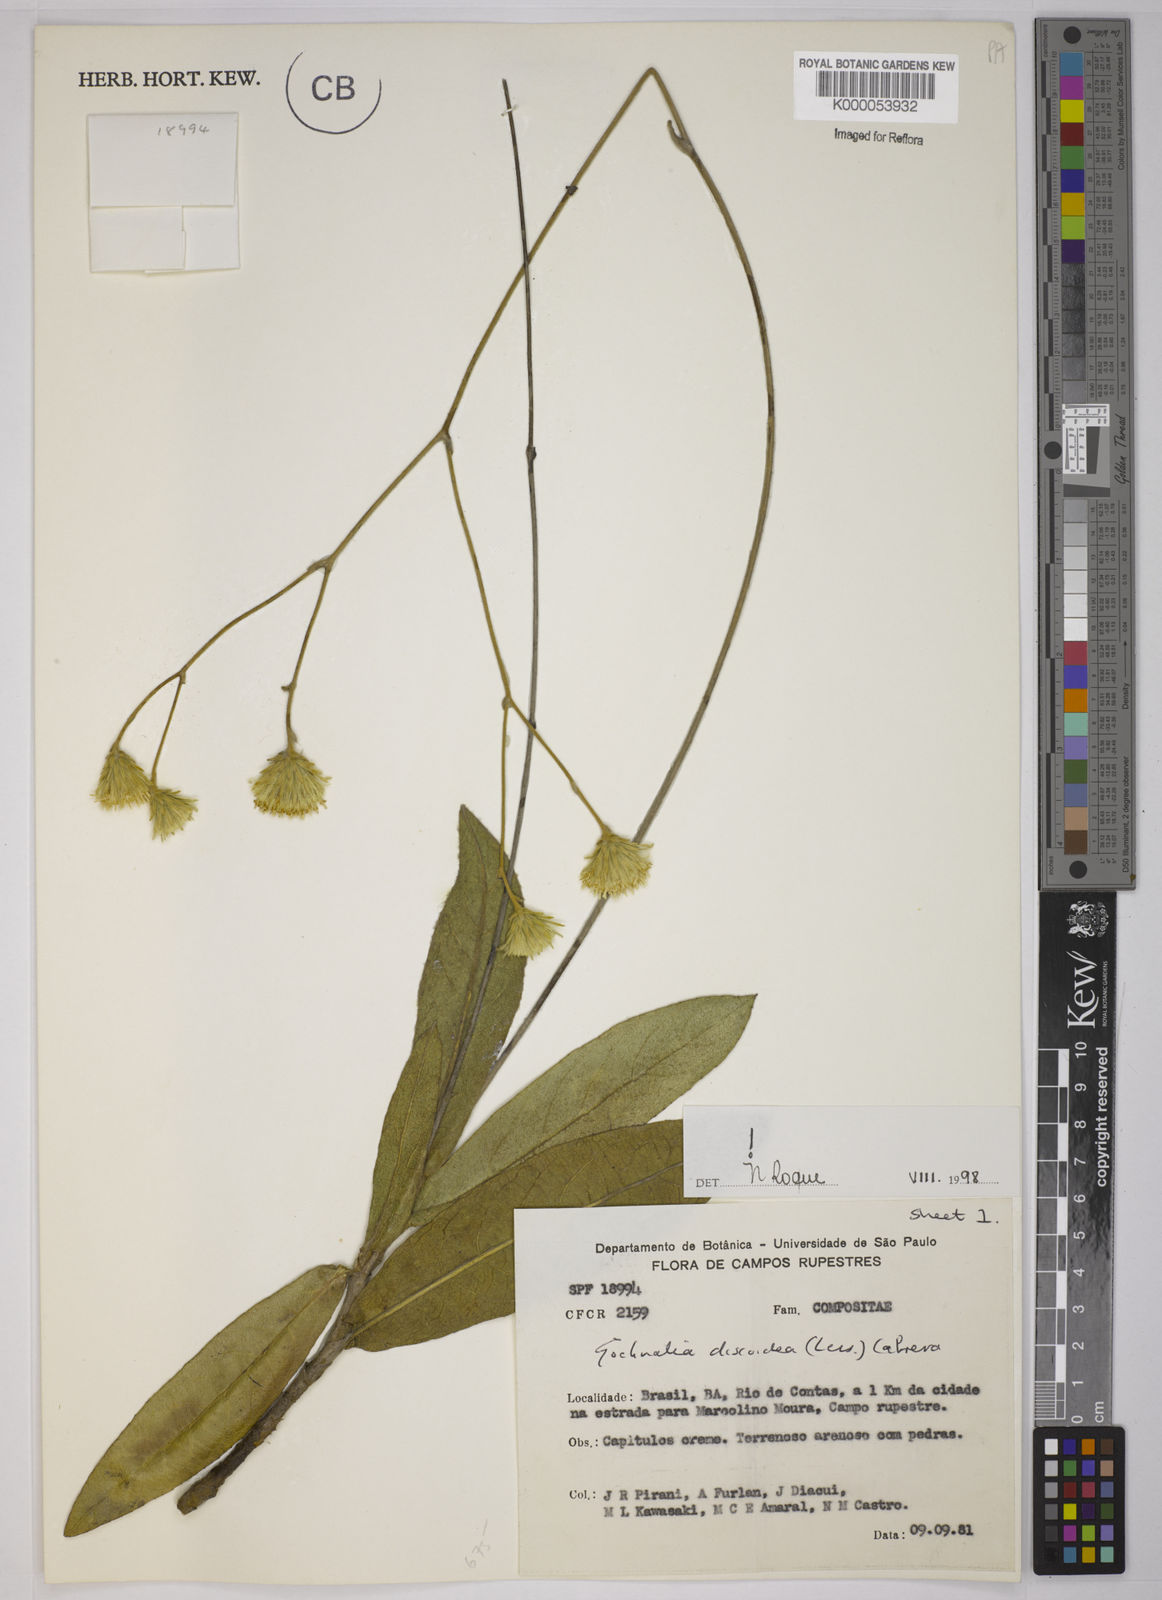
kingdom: Plantae
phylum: Tracheophyta
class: Magnoliopsida
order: Asterales
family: Asteraceae
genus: Richterago
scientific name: Richterago discoidea
